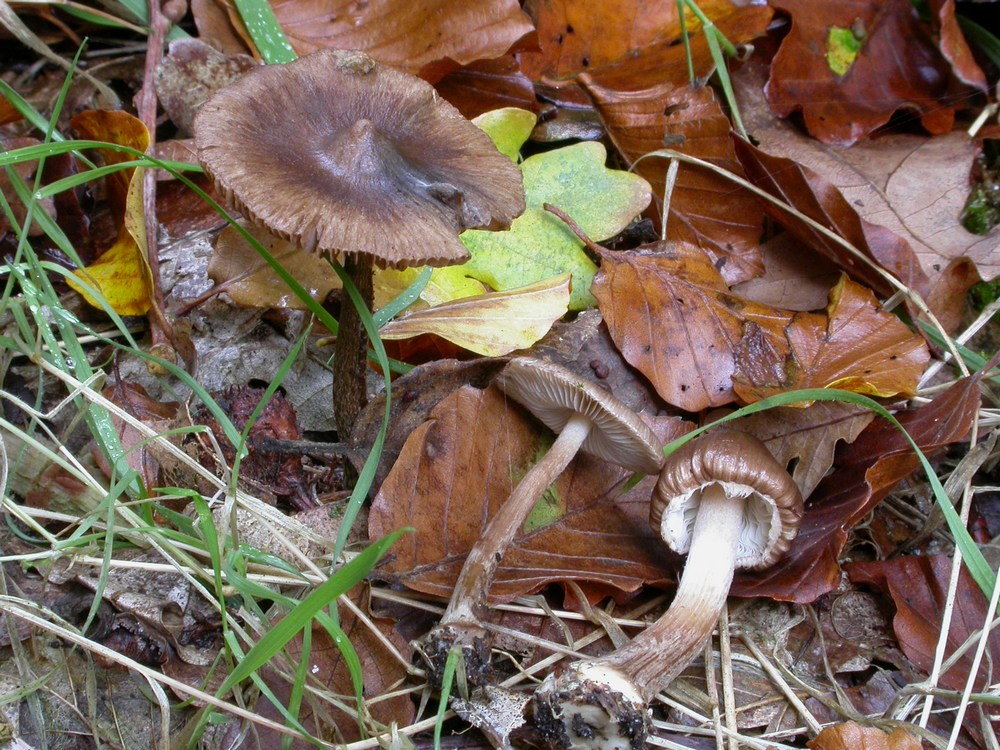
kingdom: Fungi
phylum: Basidiomycota
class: Agaricomycetes
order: Agaricales
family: Inocybaceae
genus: Inocybe
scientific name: Inocybe napipes
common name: roeknoldet trævlhat
